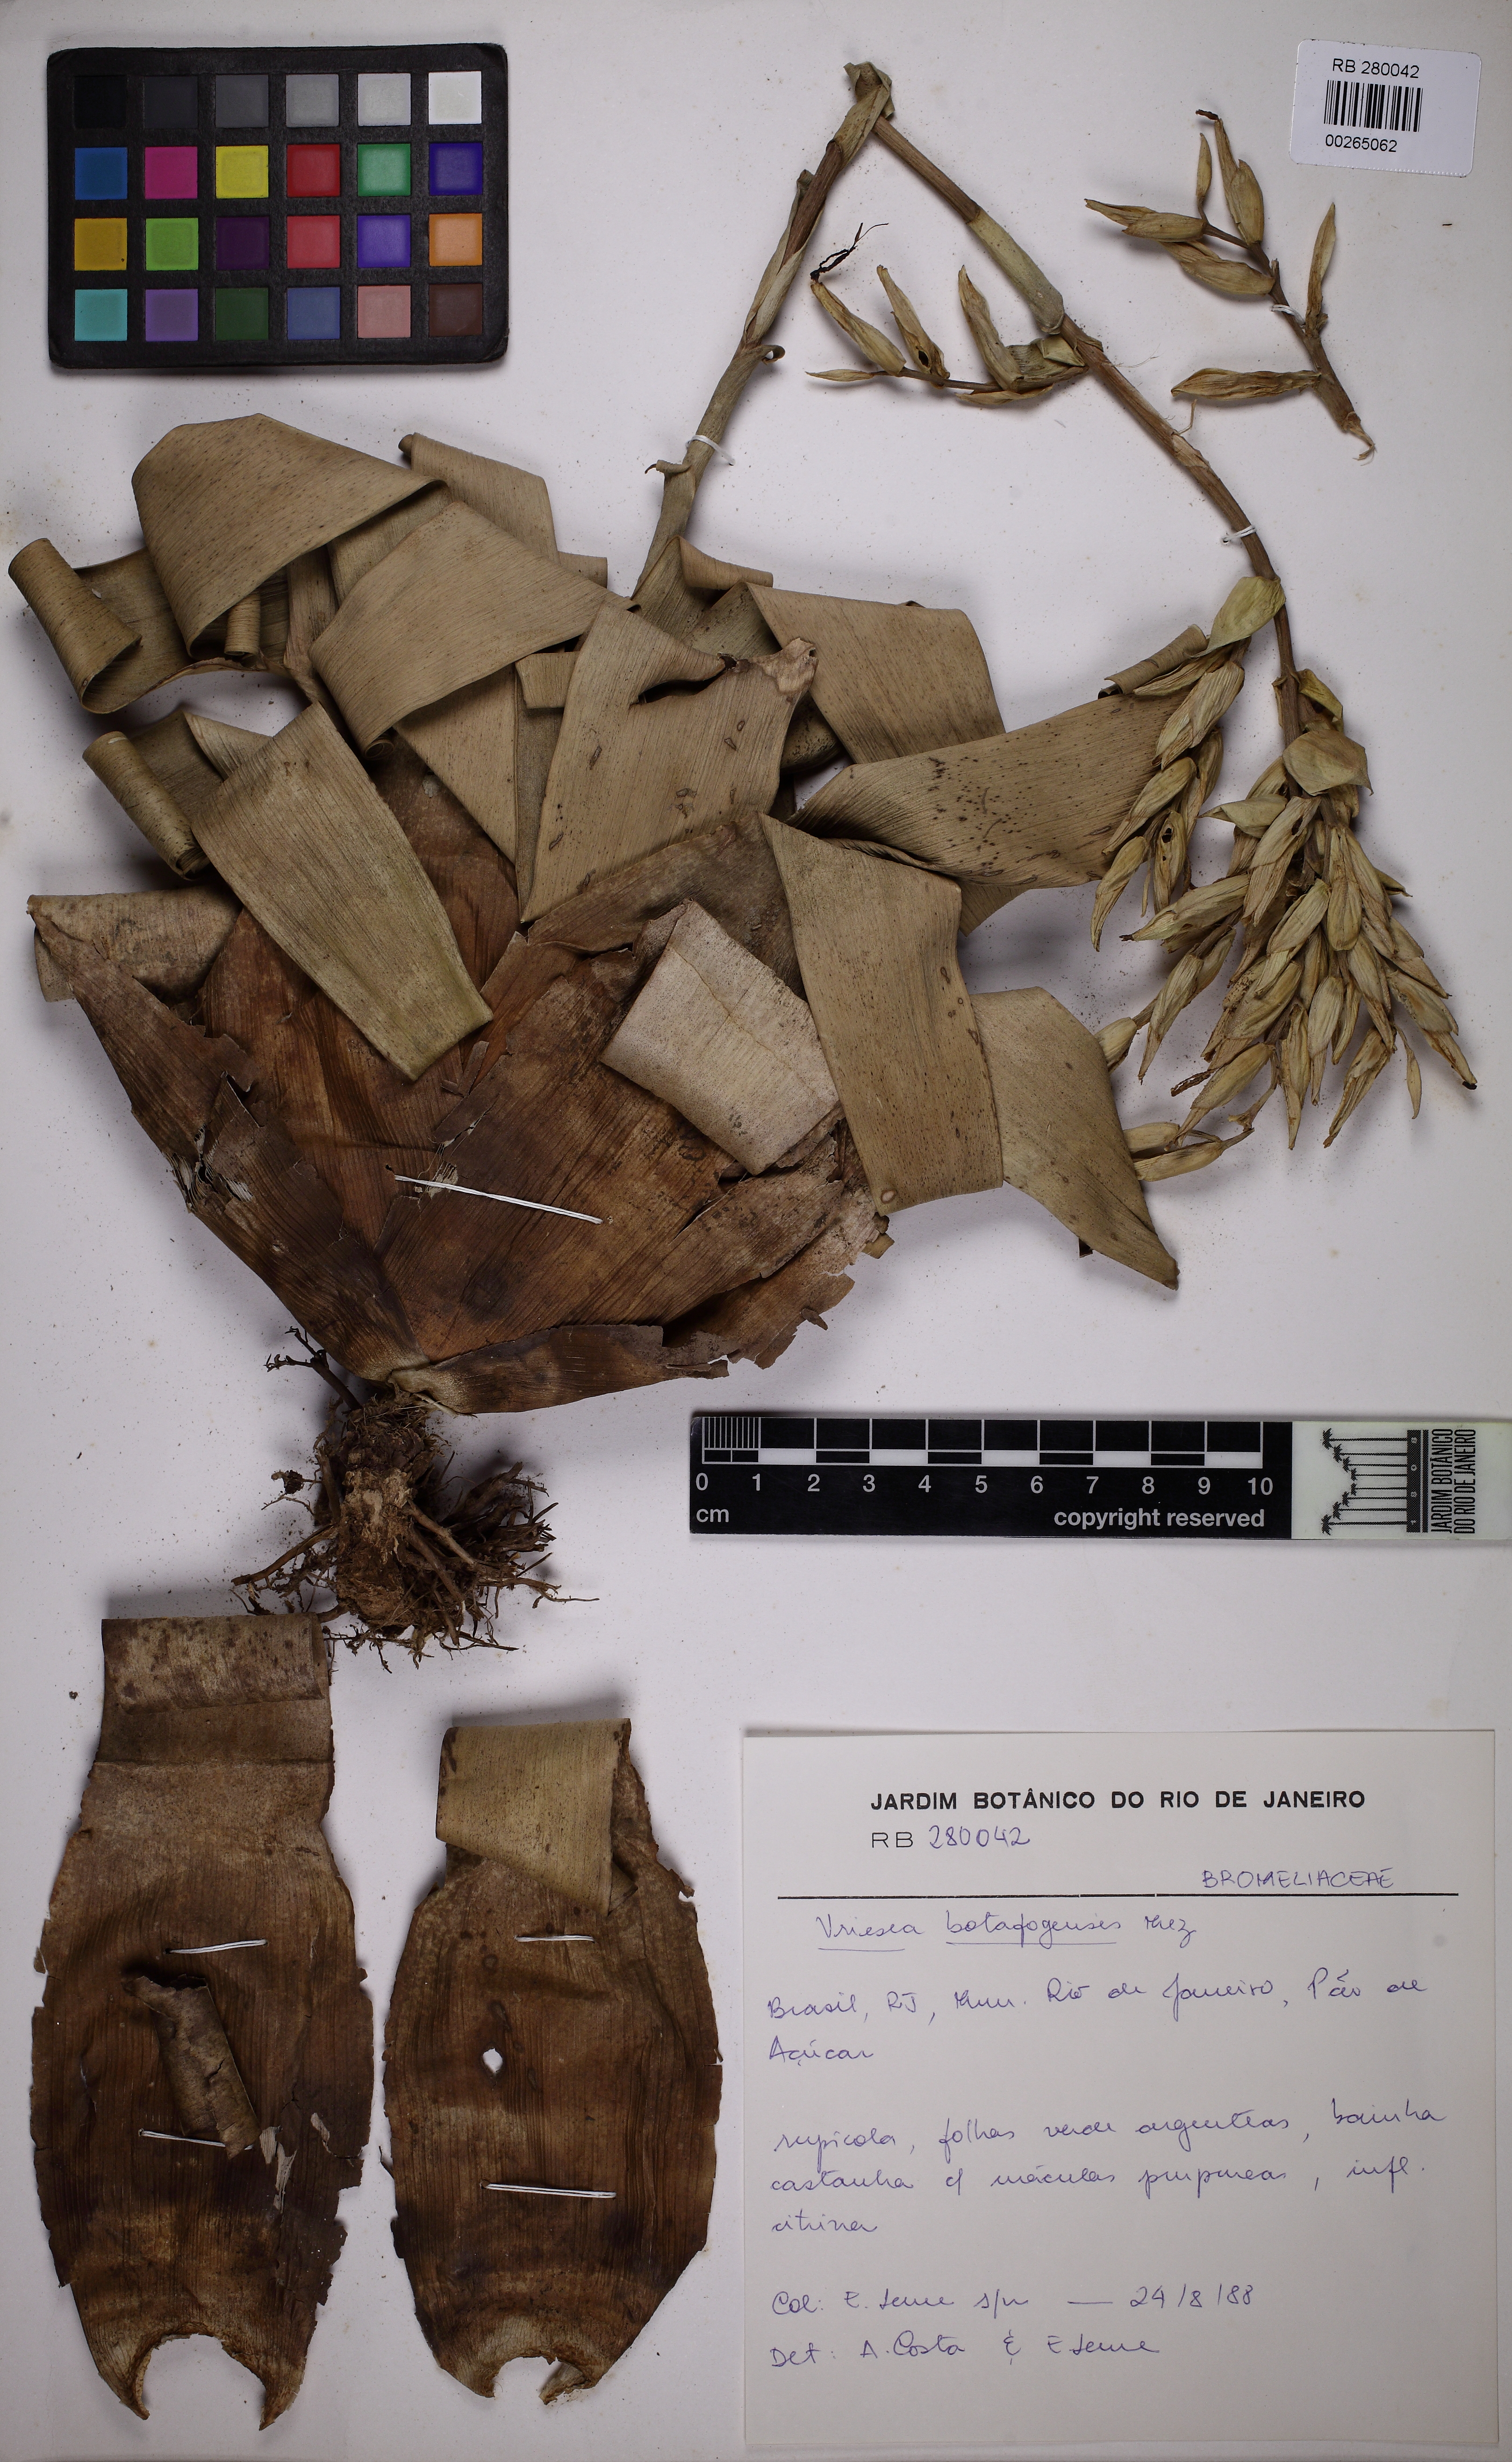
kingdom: Plantae
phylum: Tracheophyta
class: Liliopsida
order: Poales
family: Bromeliaceae
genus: Vriesea
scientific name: Vriesea saundersii
